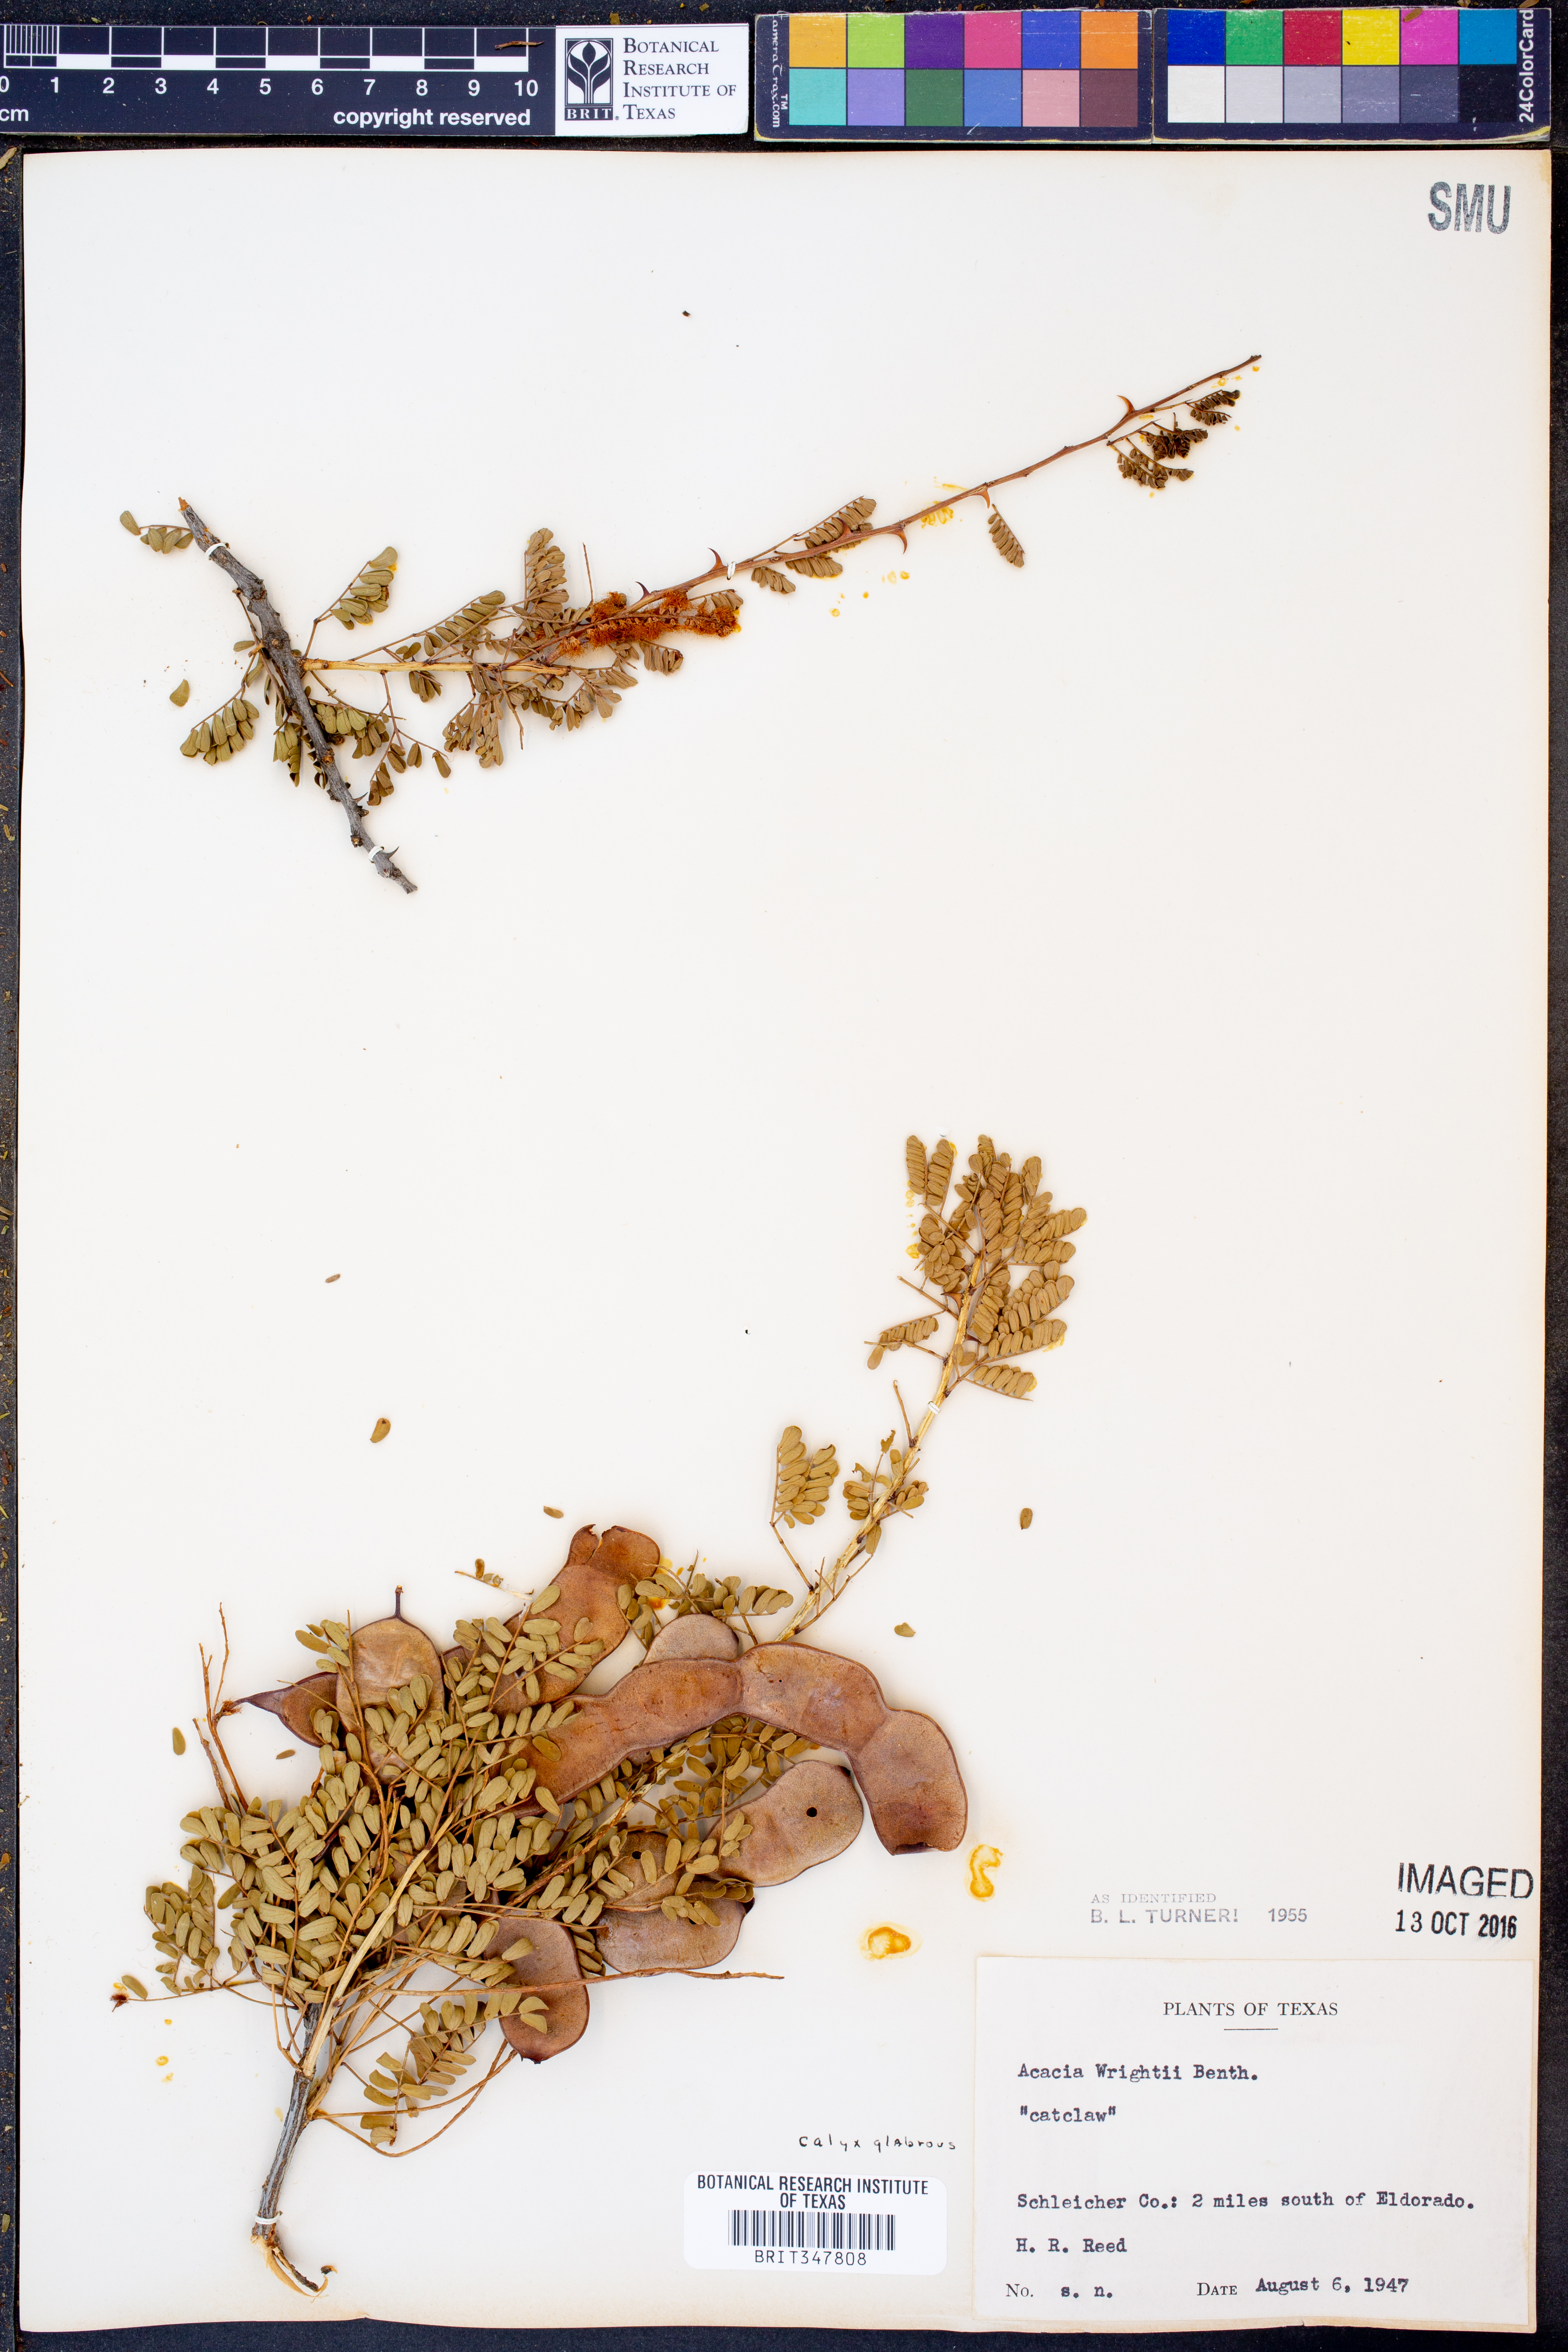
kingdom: Plantae
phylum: Tracheophyta
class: Magnoliopsida
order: Fabales
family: Fabaceae
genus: Senegalia
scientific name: Senegalia wrightii
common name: Texas cat's-claw
